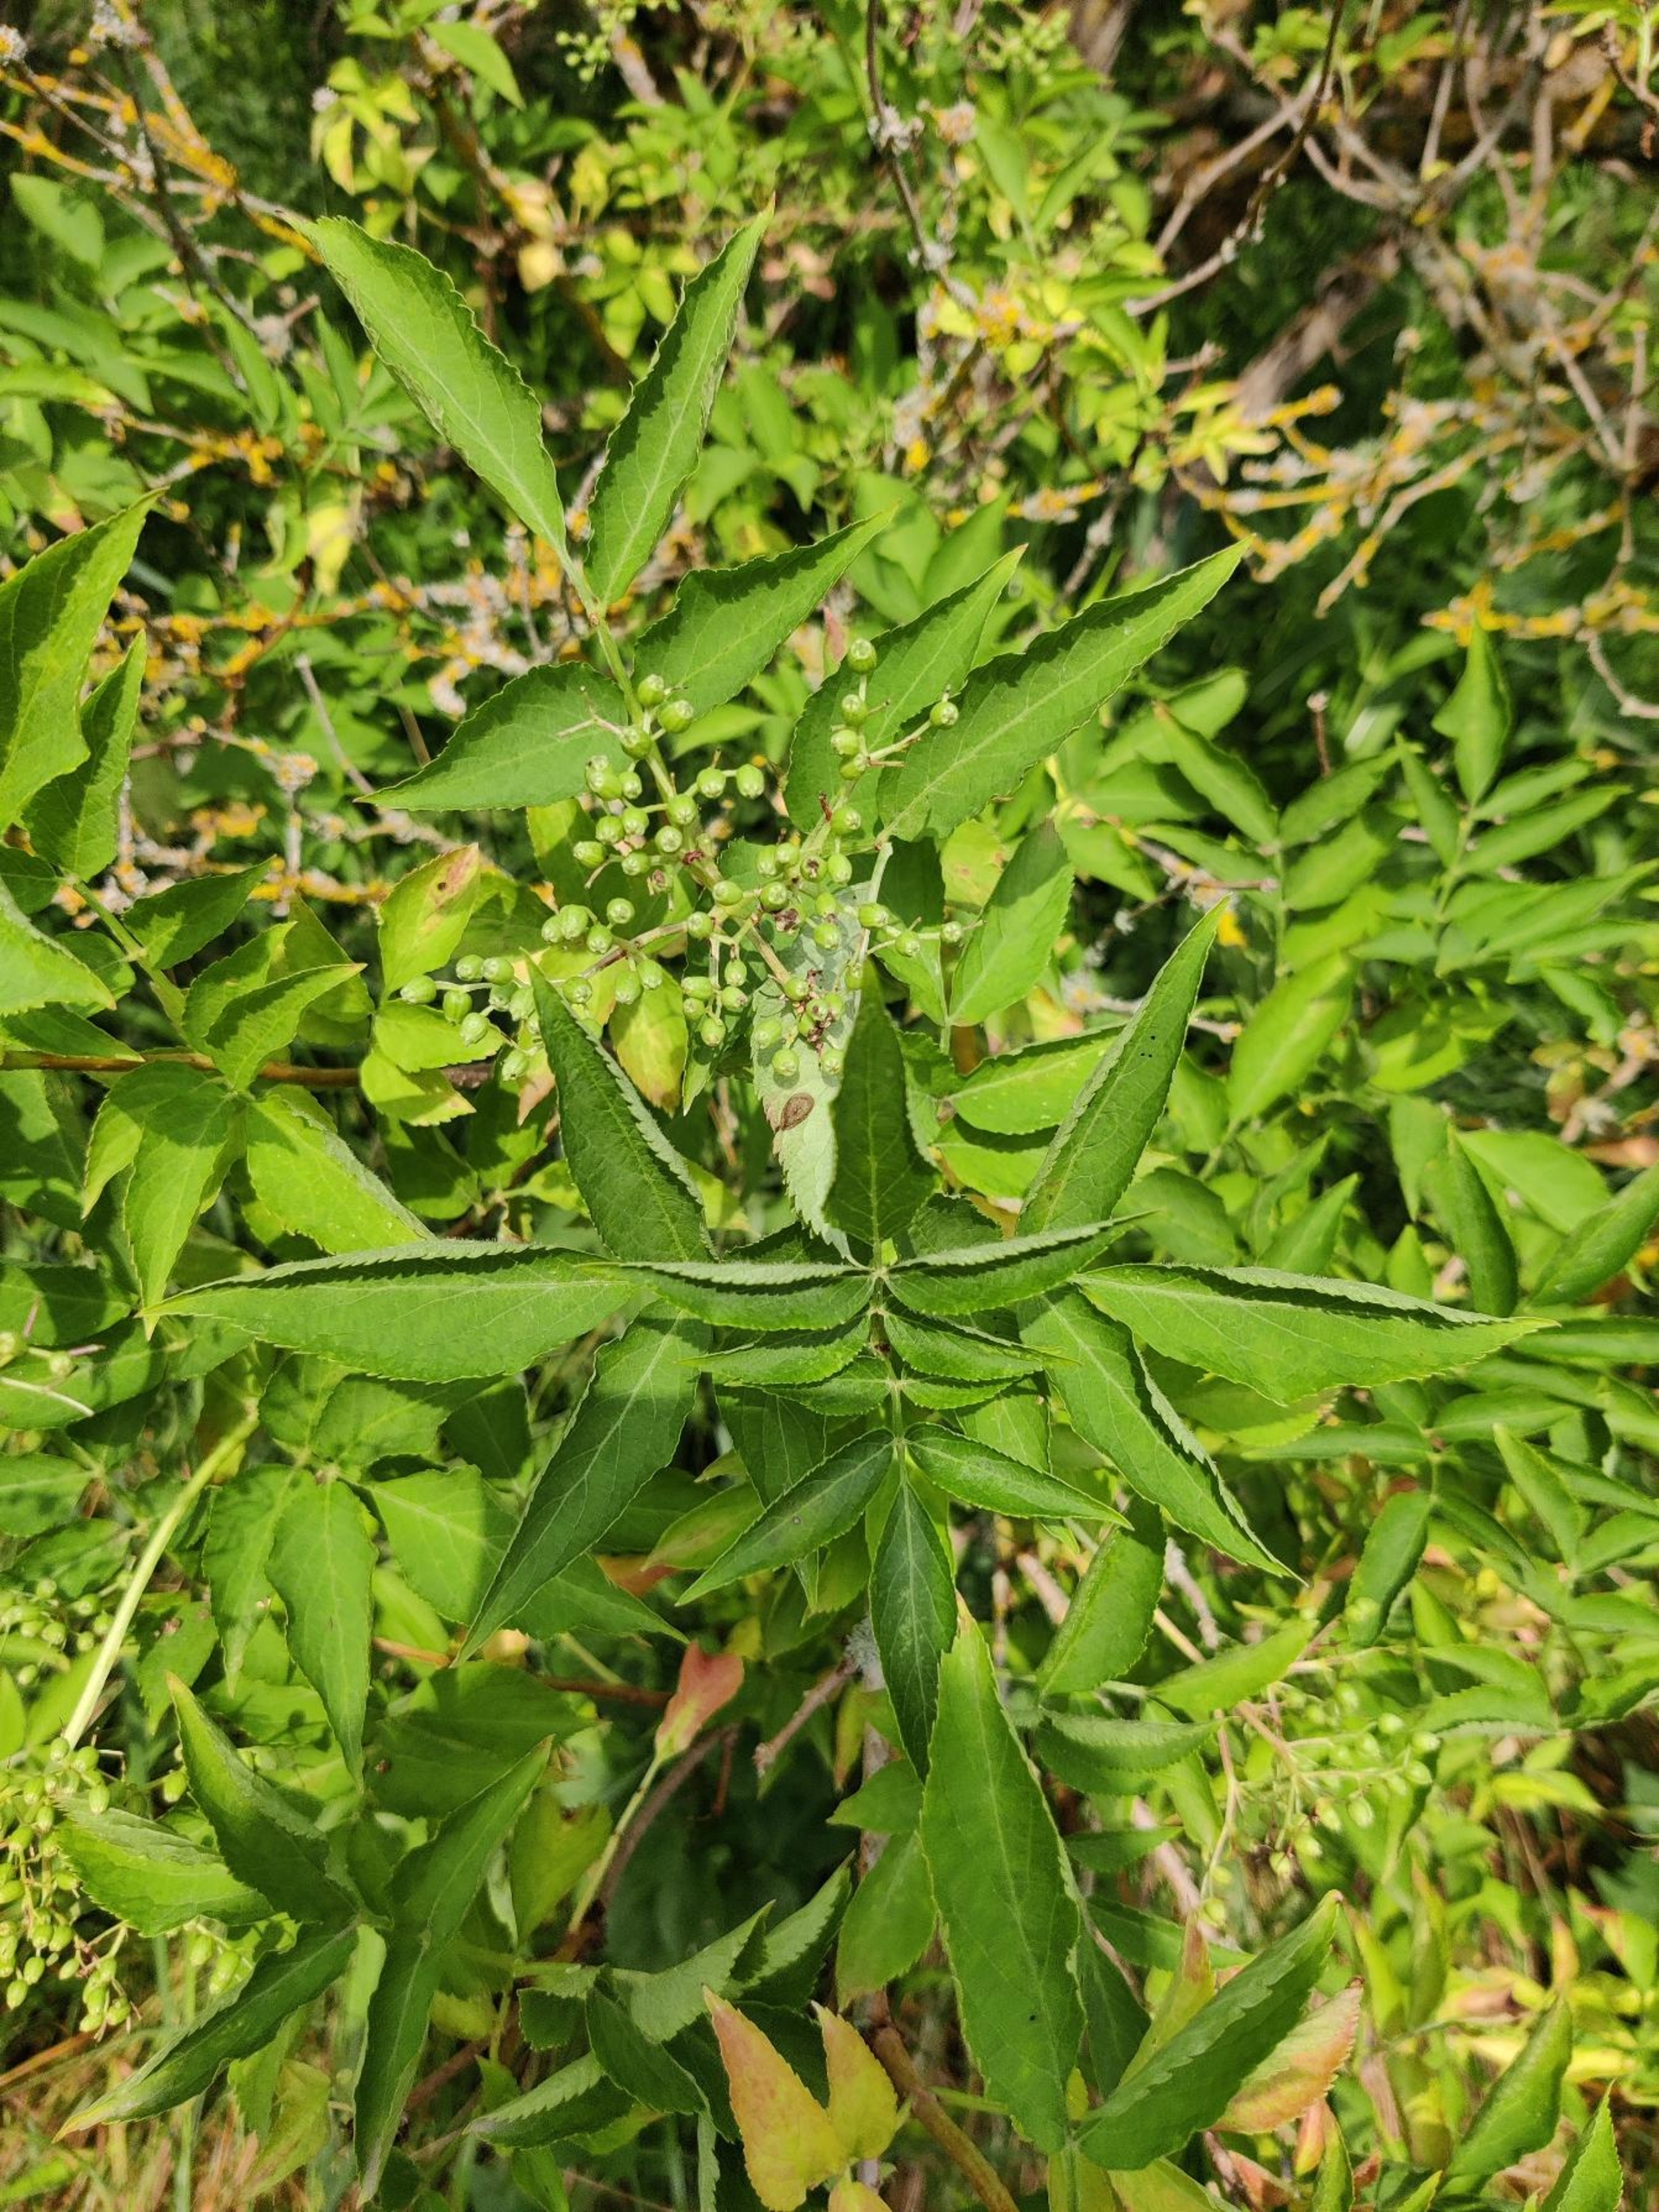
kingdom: Plantae
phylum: Tracheophyta
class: Magnoliopsida
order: Dipsacales
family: Viburnaceae
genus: Sambucus
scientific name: Sambucus nigra
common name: Almindelig hyld
